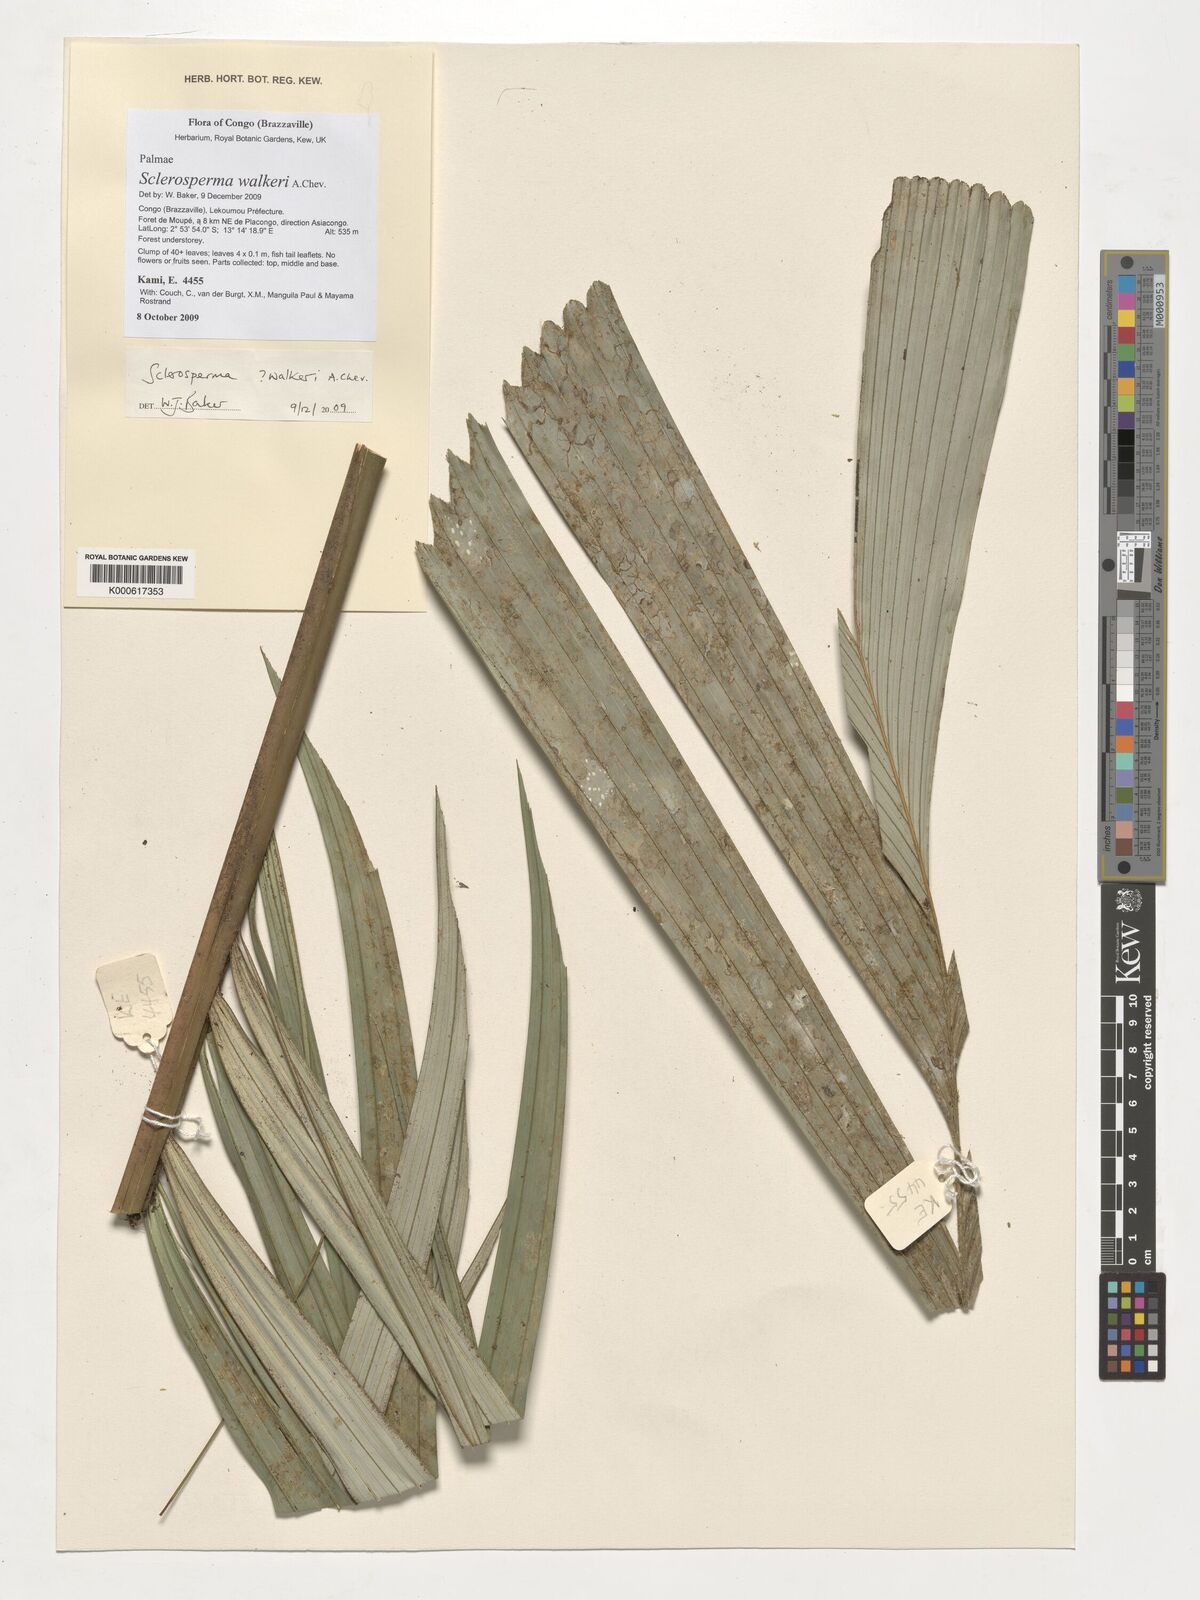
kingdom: Plantae
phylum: Tracheophyta
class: Liliopsida
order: Arecales
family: Arecaceae
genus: Sclerosperma
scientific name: Sclerosperma walkeri
